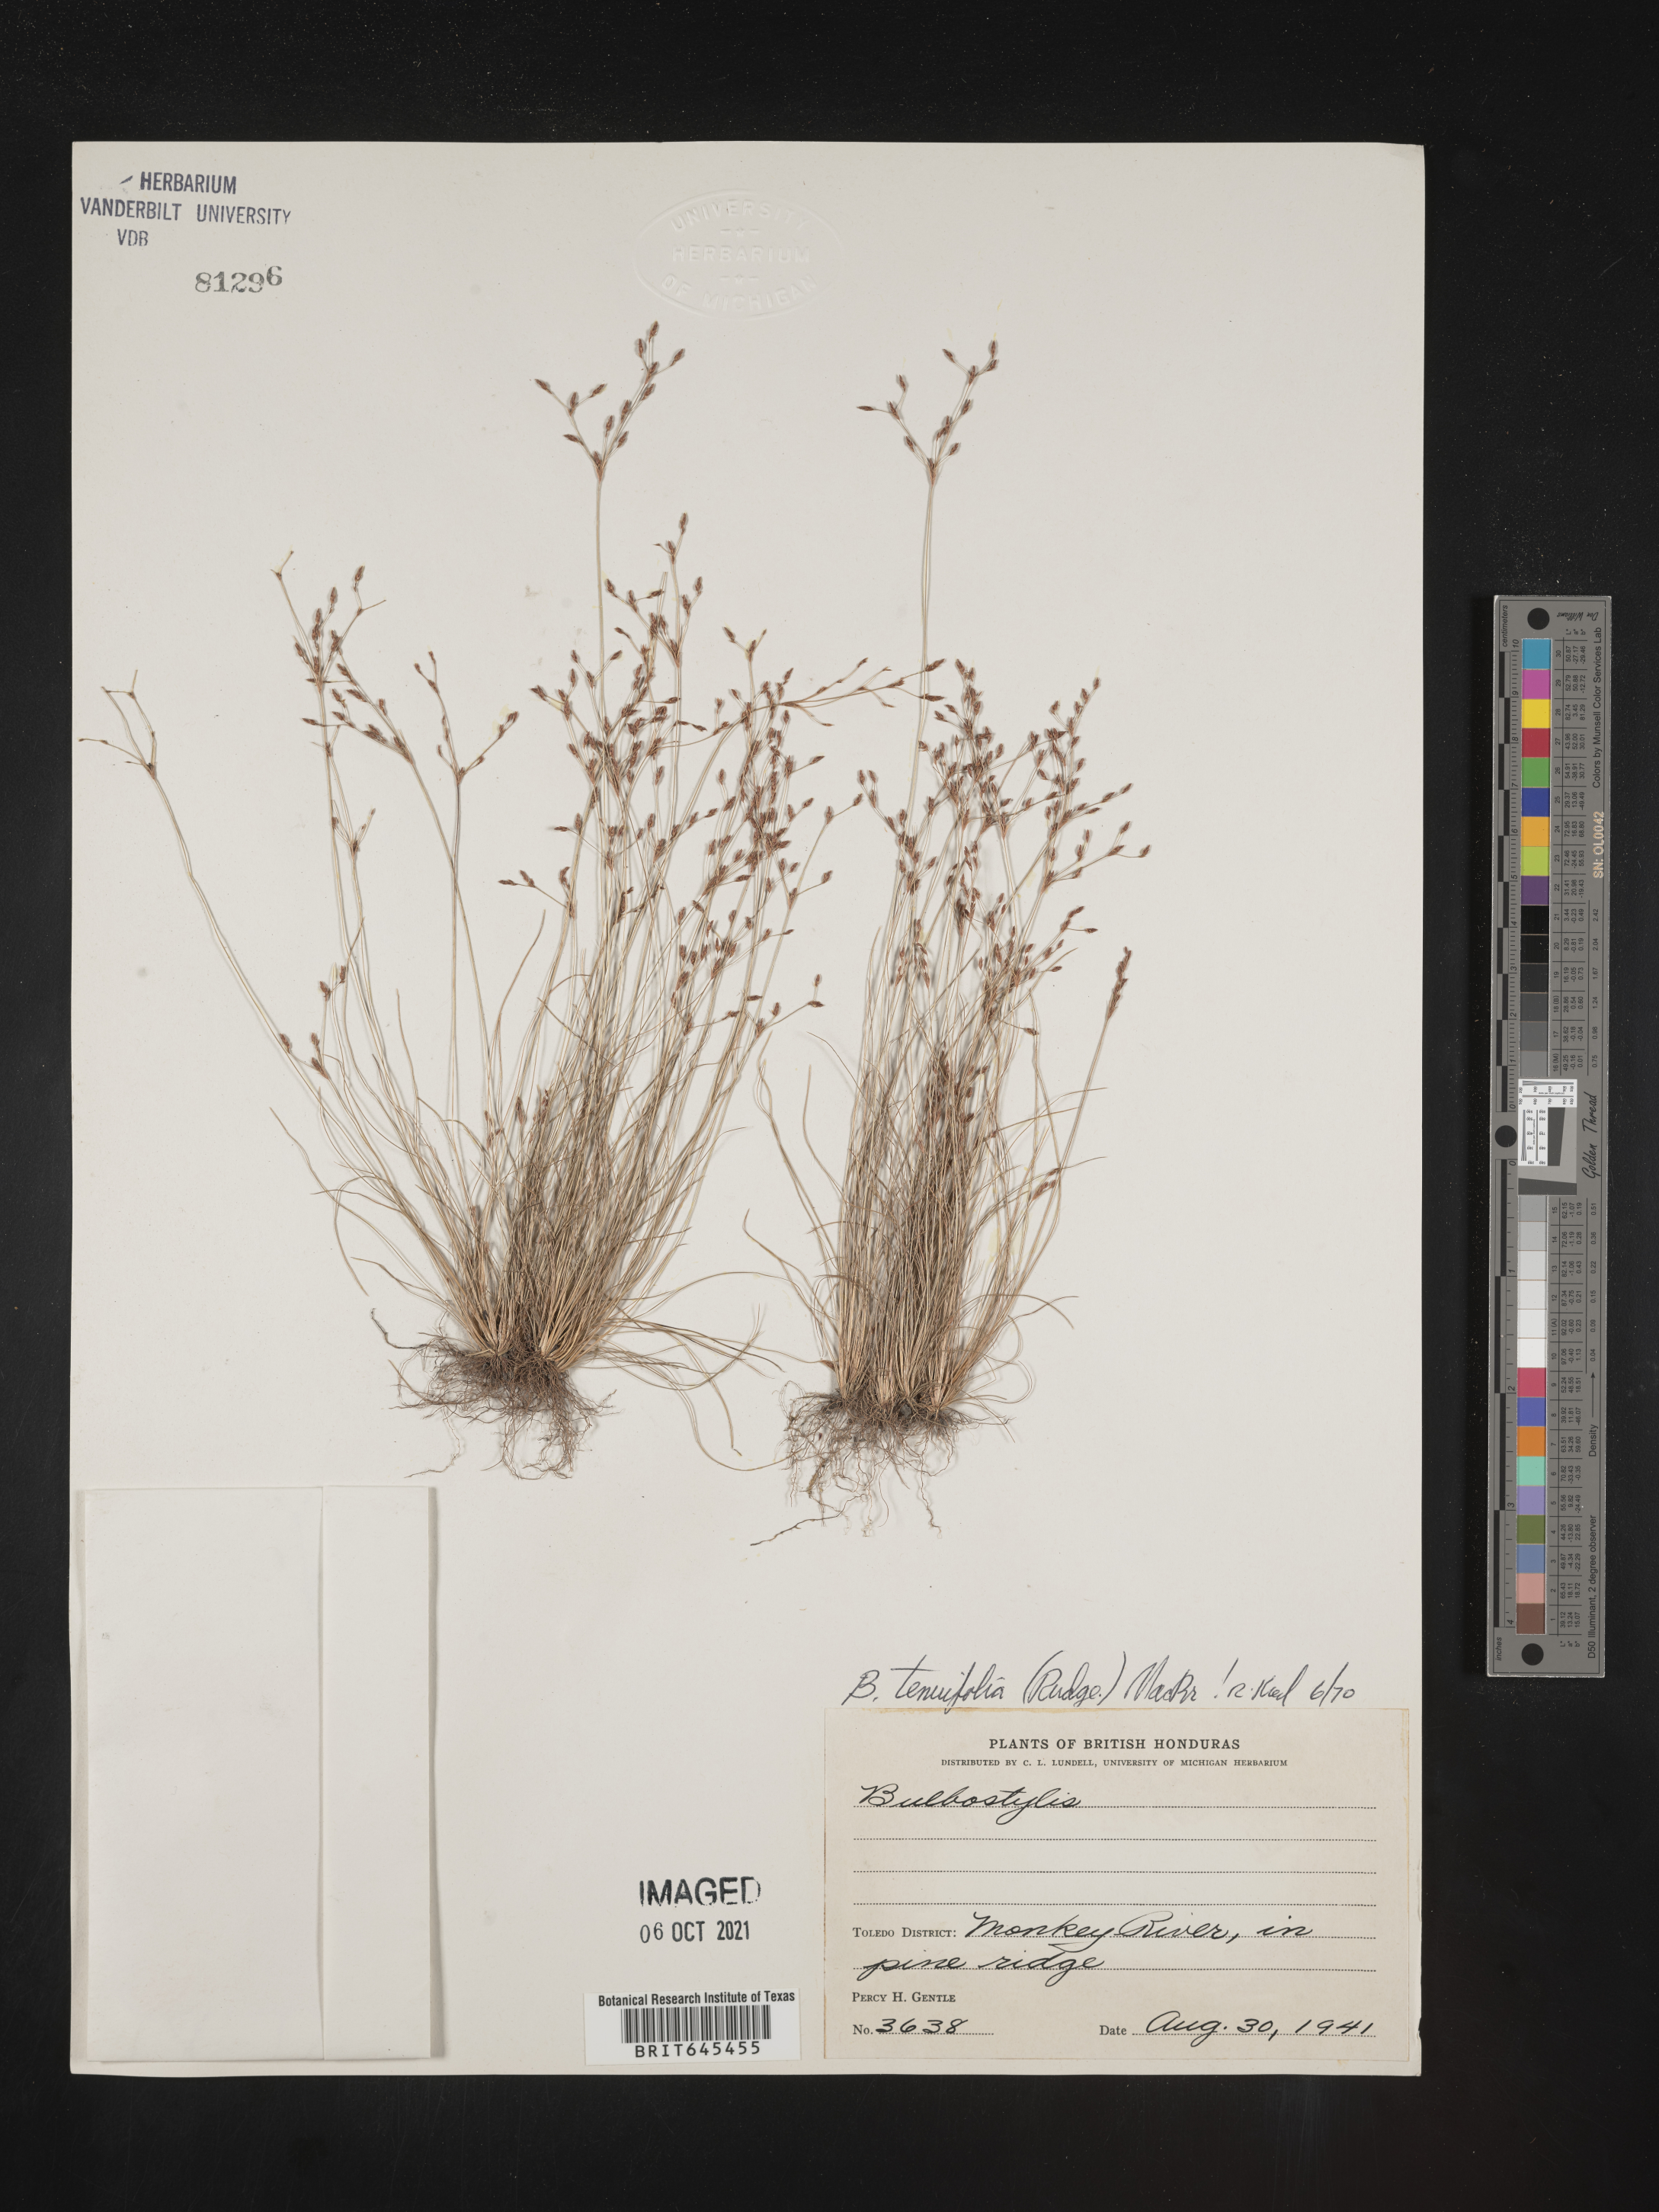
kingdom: Plantae
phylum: Tracheophyta
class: Liliopsida
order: Poales
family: Cyperaceae
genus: Eleocharis
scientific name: Eleocharis Bulbostylis tenuifolia
